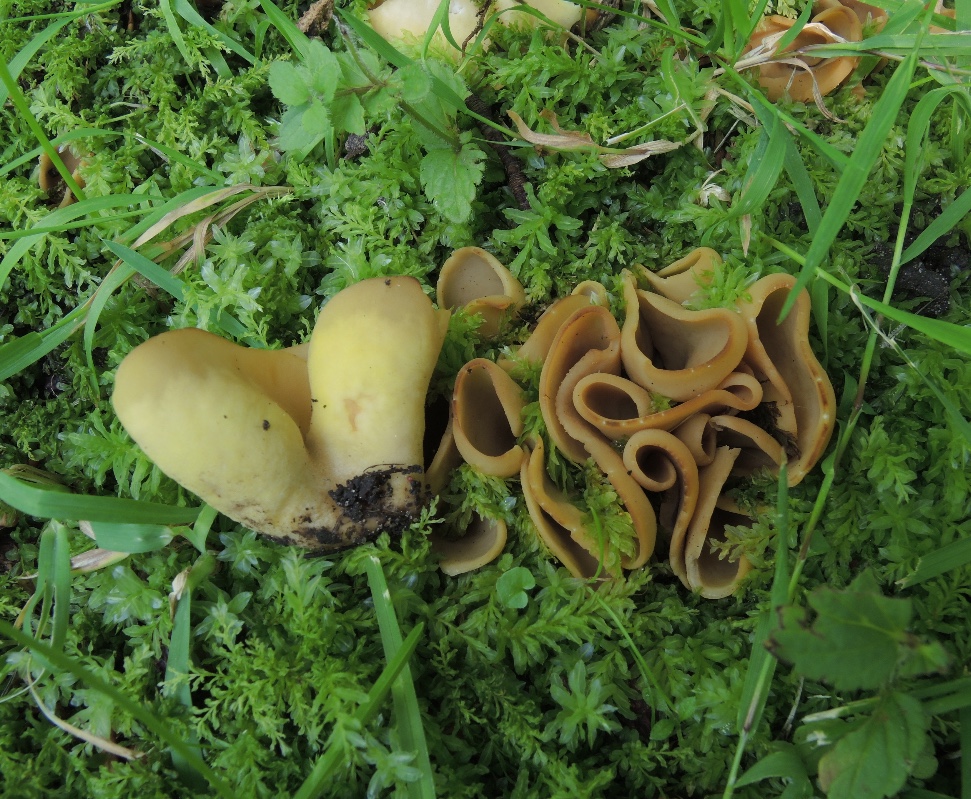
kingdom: Fungi
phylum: Ascomycota
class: Pezizomycetes
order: Pezizales
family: Otideaceae
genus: Otidea
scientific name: Otidea cantharella
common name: citrongul ørebæger
